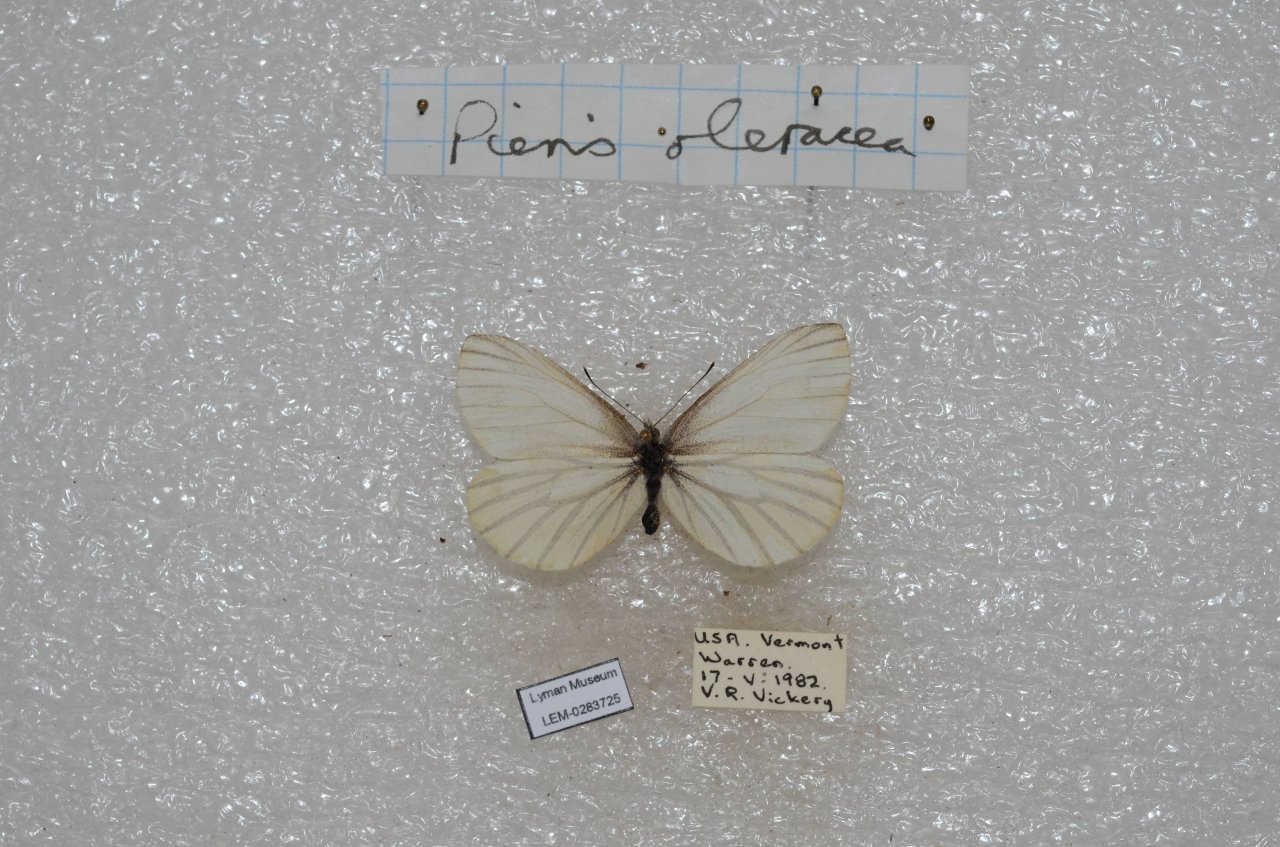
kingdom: Animalia
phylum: Arthropoda
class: Insecta
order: Lepidoptera
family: Pieridae
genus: Pieris
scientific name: Pieris oleracea
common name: Mustard White
